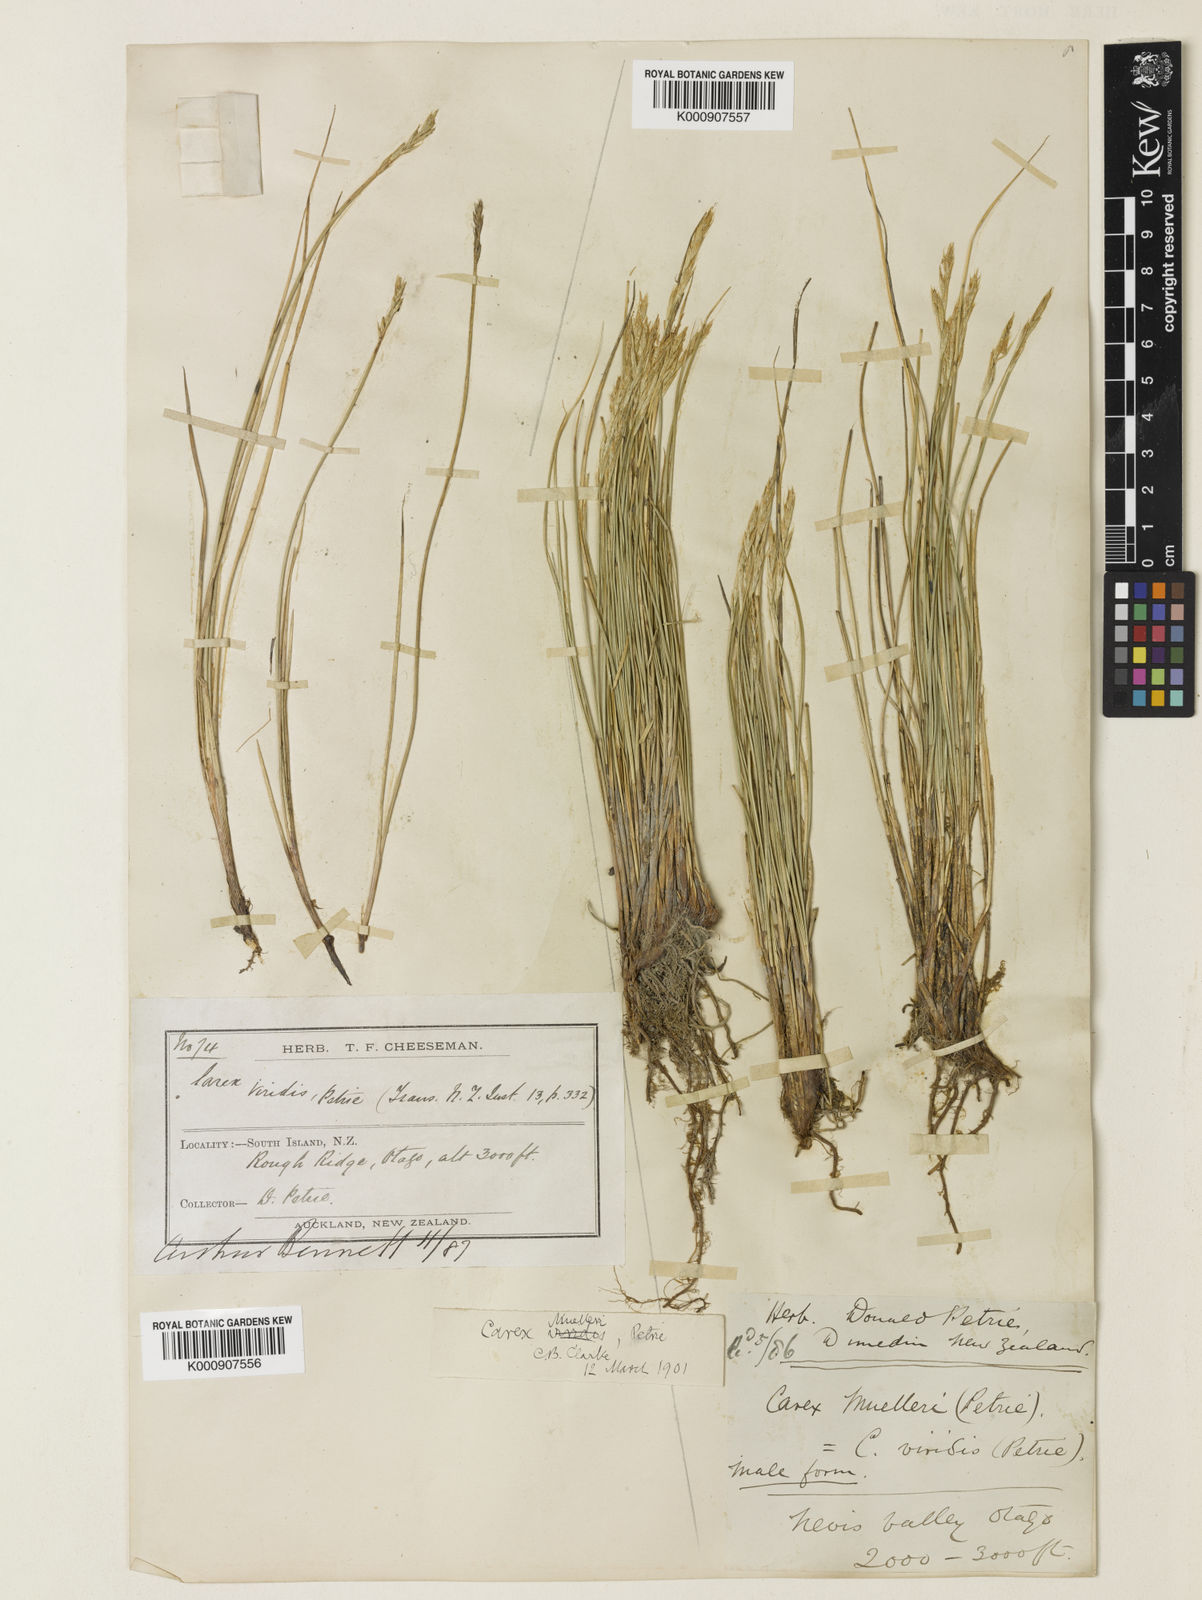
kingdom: Plantae
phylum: Tracheophyta
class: Liliopsida
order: Poales
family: Cyperaceae
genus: Carex
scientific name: Carex muelleri
